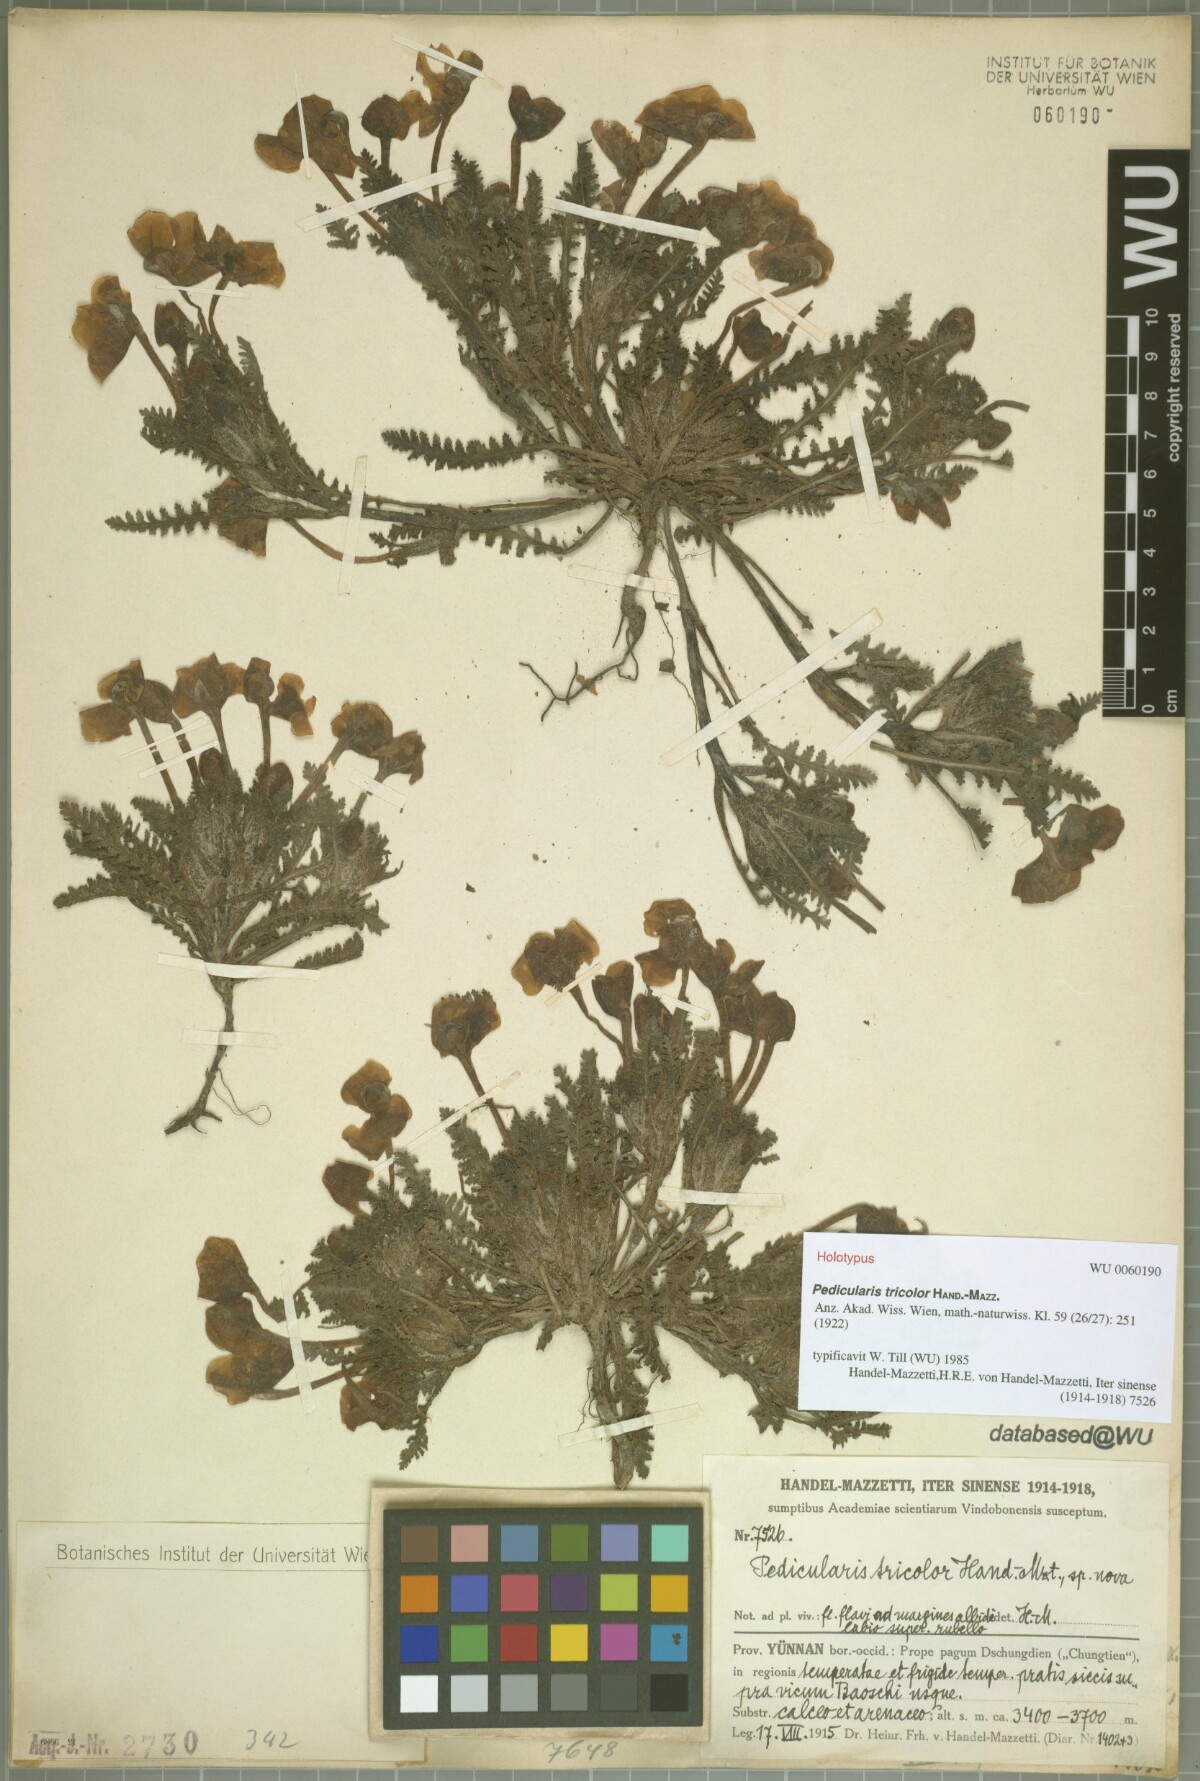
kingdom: Plantae
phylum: Tracheophyta
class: Magnoliopsida
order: Lamiales
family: Orobanchaceae
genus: Pedicularis
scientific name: Pedicularis tricolor
